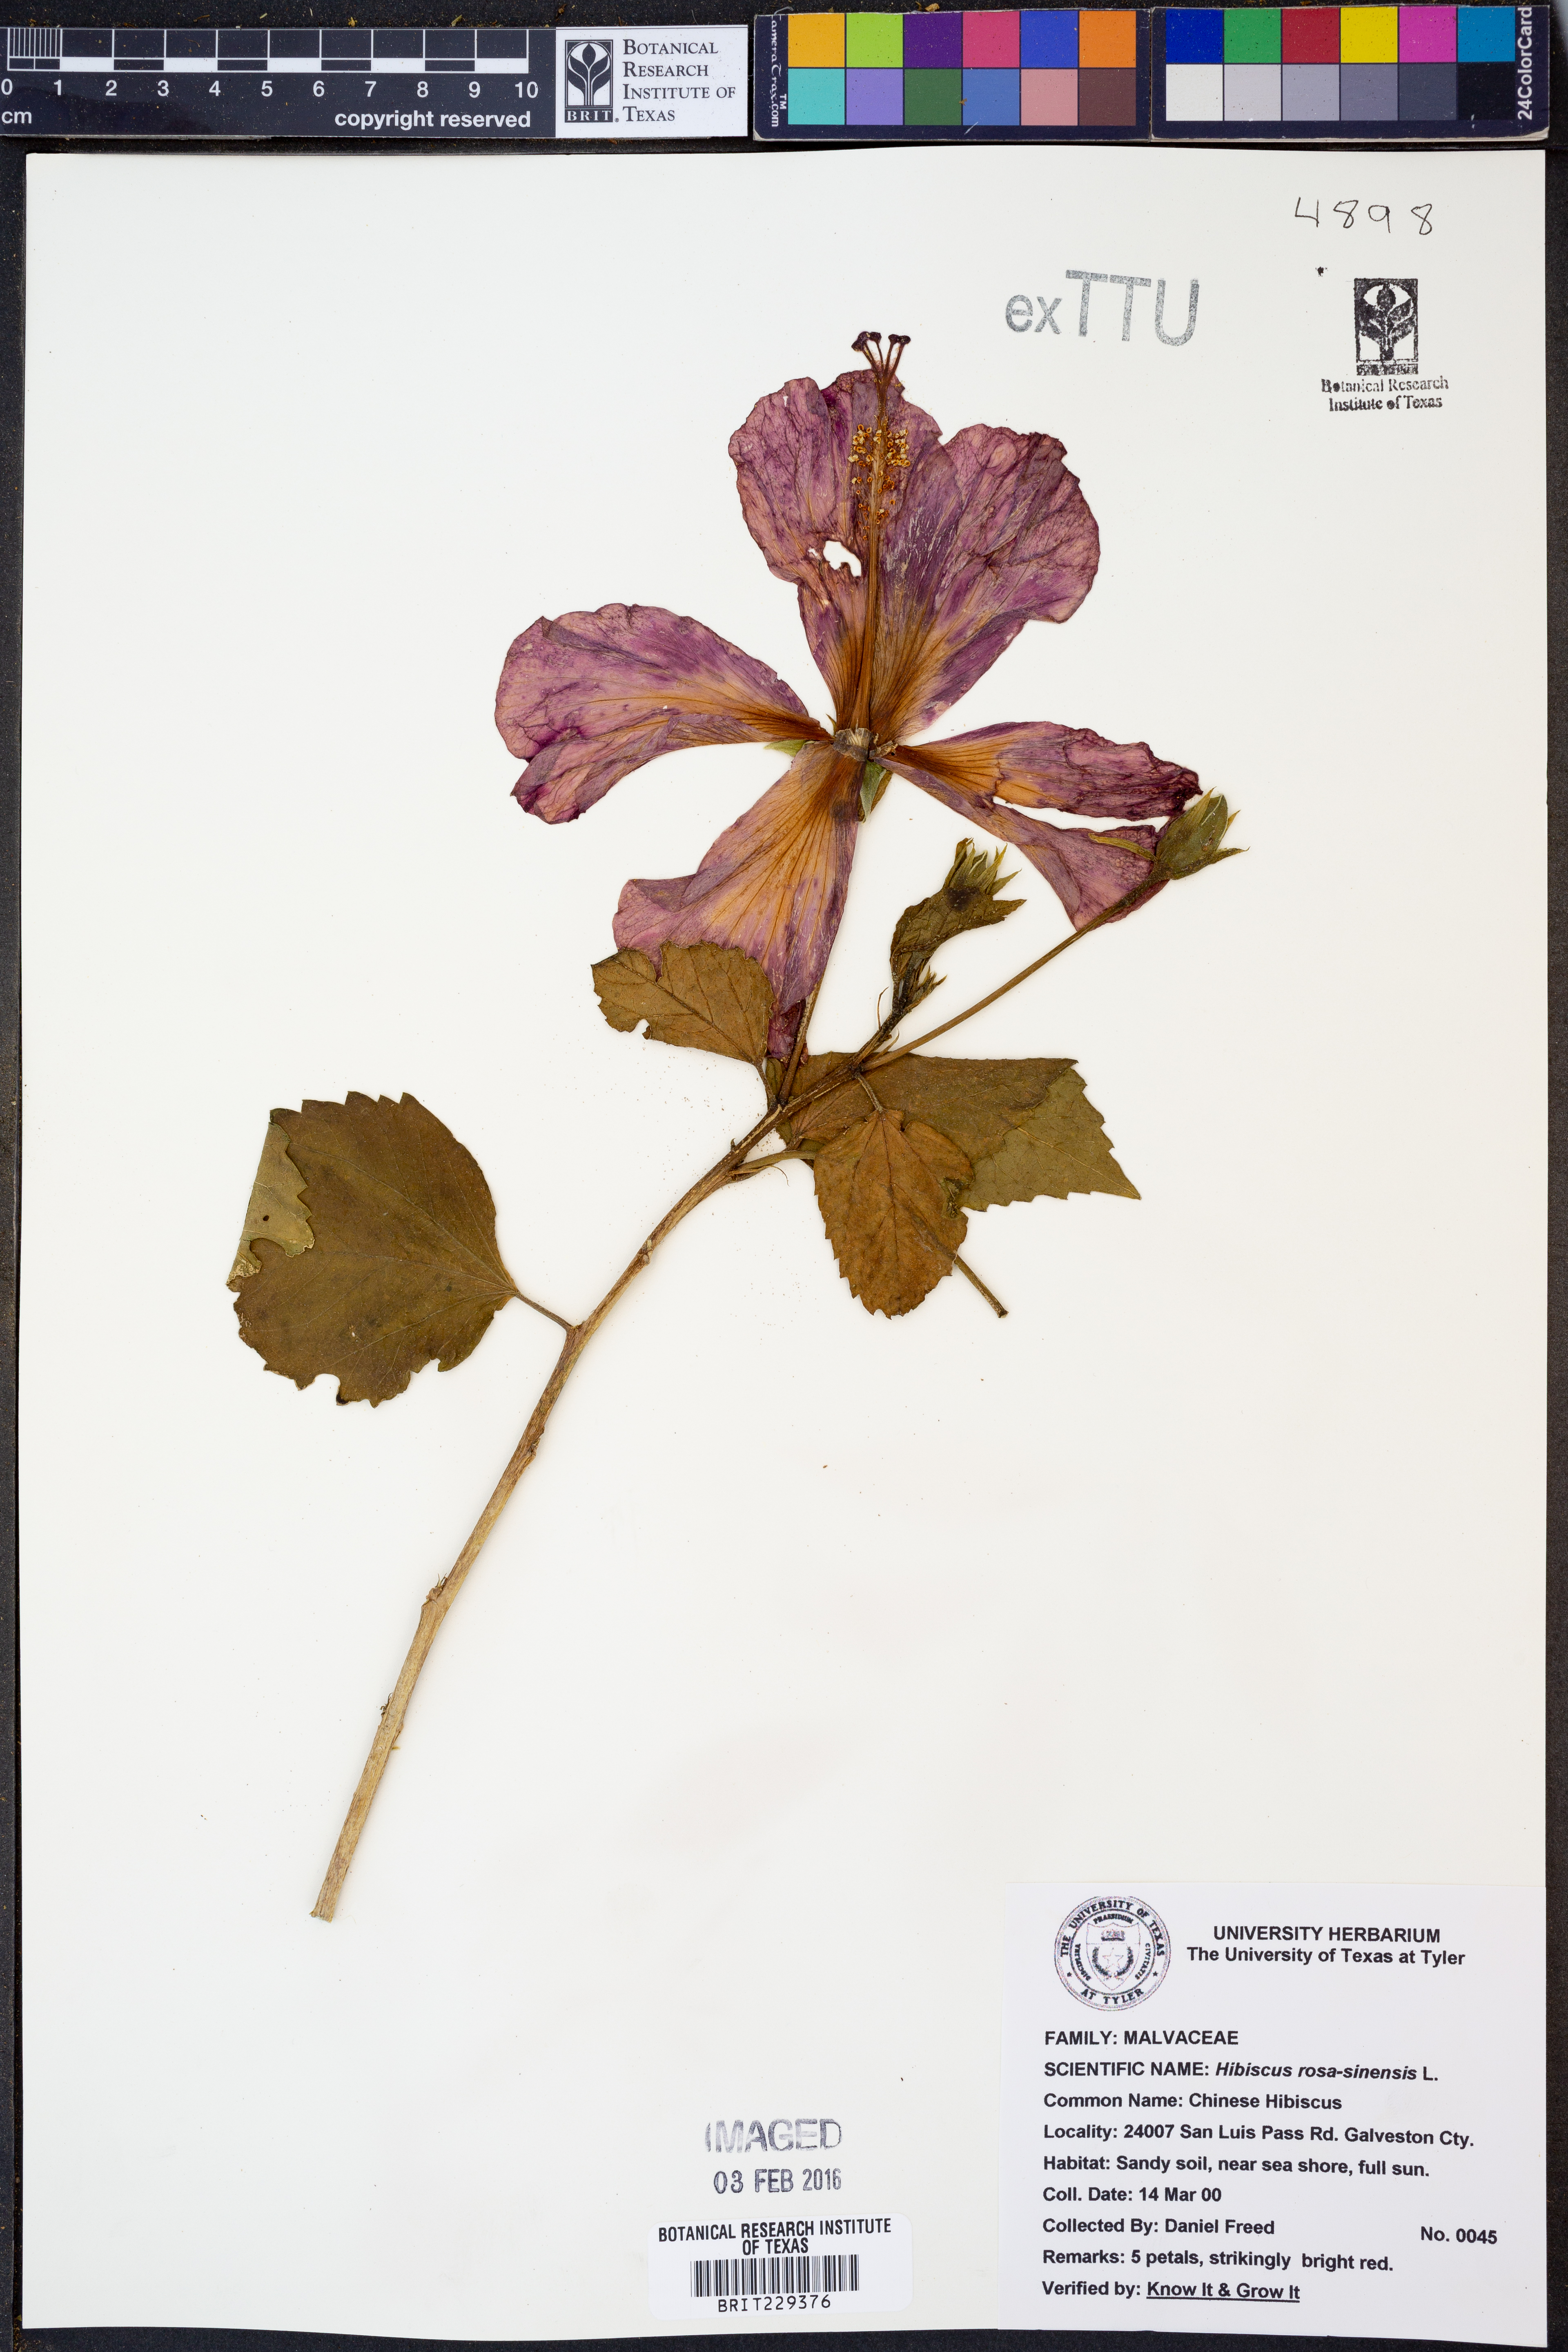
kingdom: Plantae
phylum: Tracheophyta
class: Magnoliopsida
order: Malvales
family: Malvaceae
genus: Hibiscus
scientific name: Hibiscus rosa-sinensis
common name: Hibiscus
